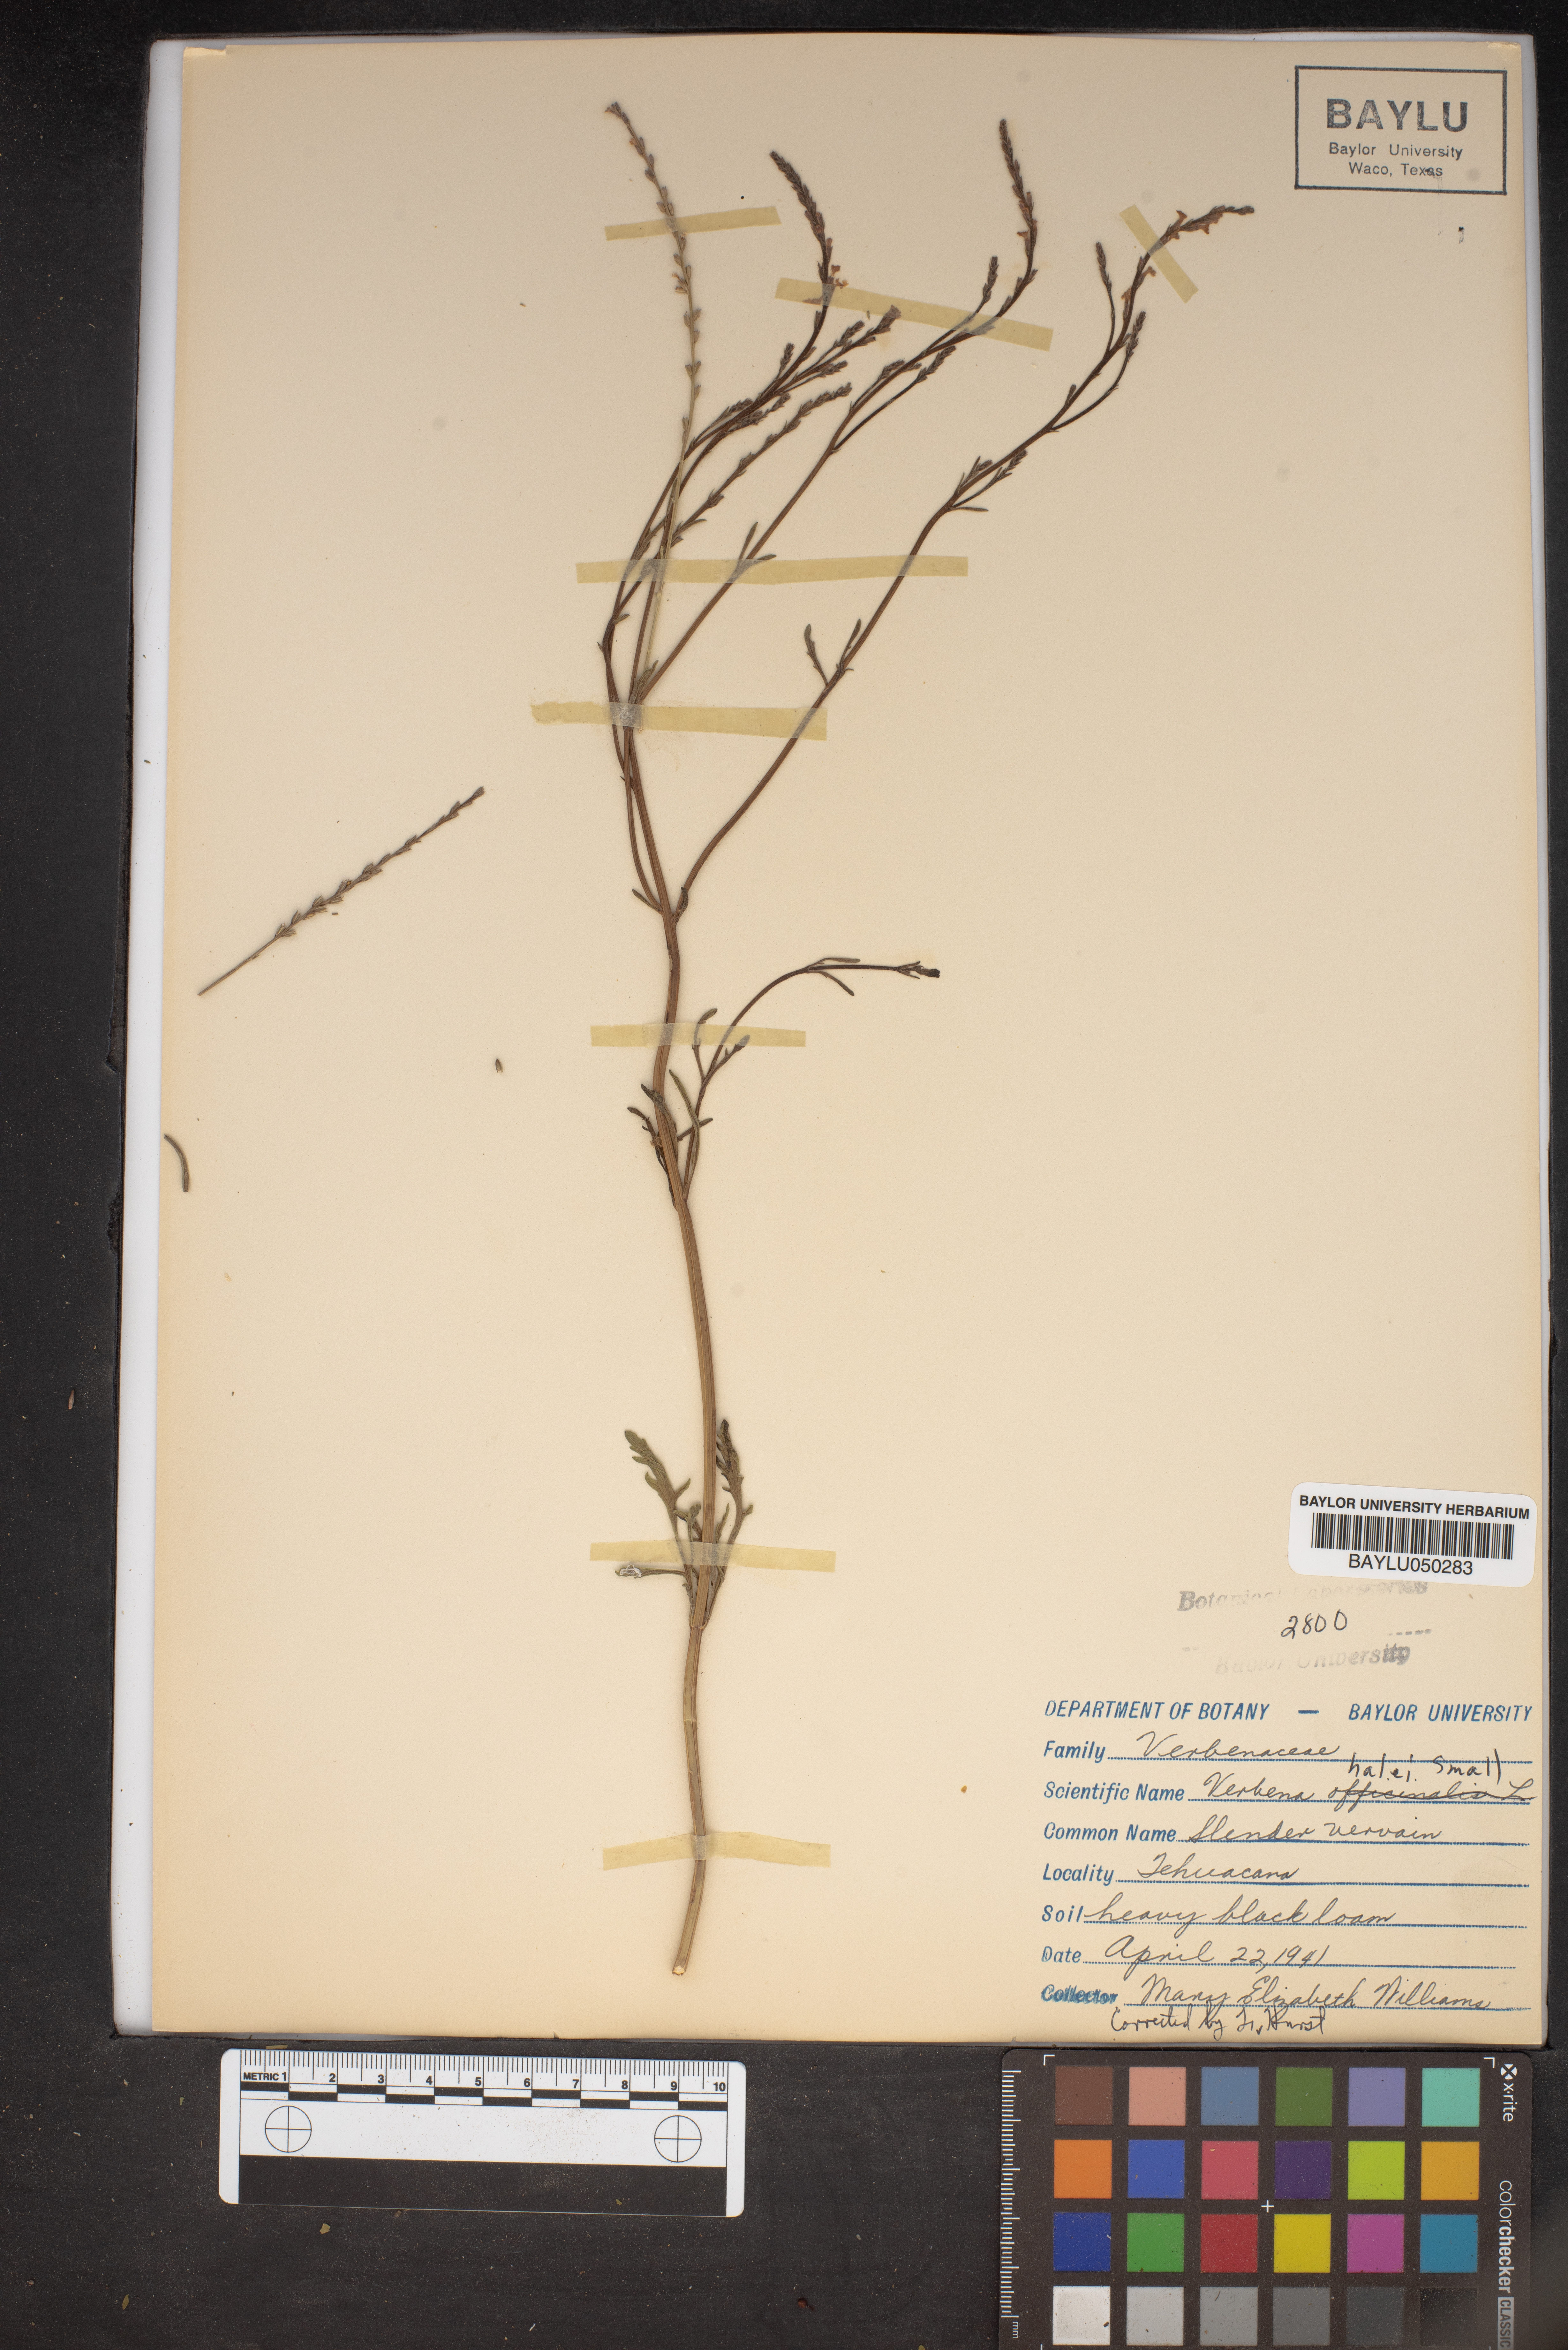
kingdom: Plantae
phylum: Tracheophyta
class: Magnoliopsida
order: Lamiales
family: Verbenaceae
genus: Verbena
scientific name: Verbena halei
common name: Texas vervain
